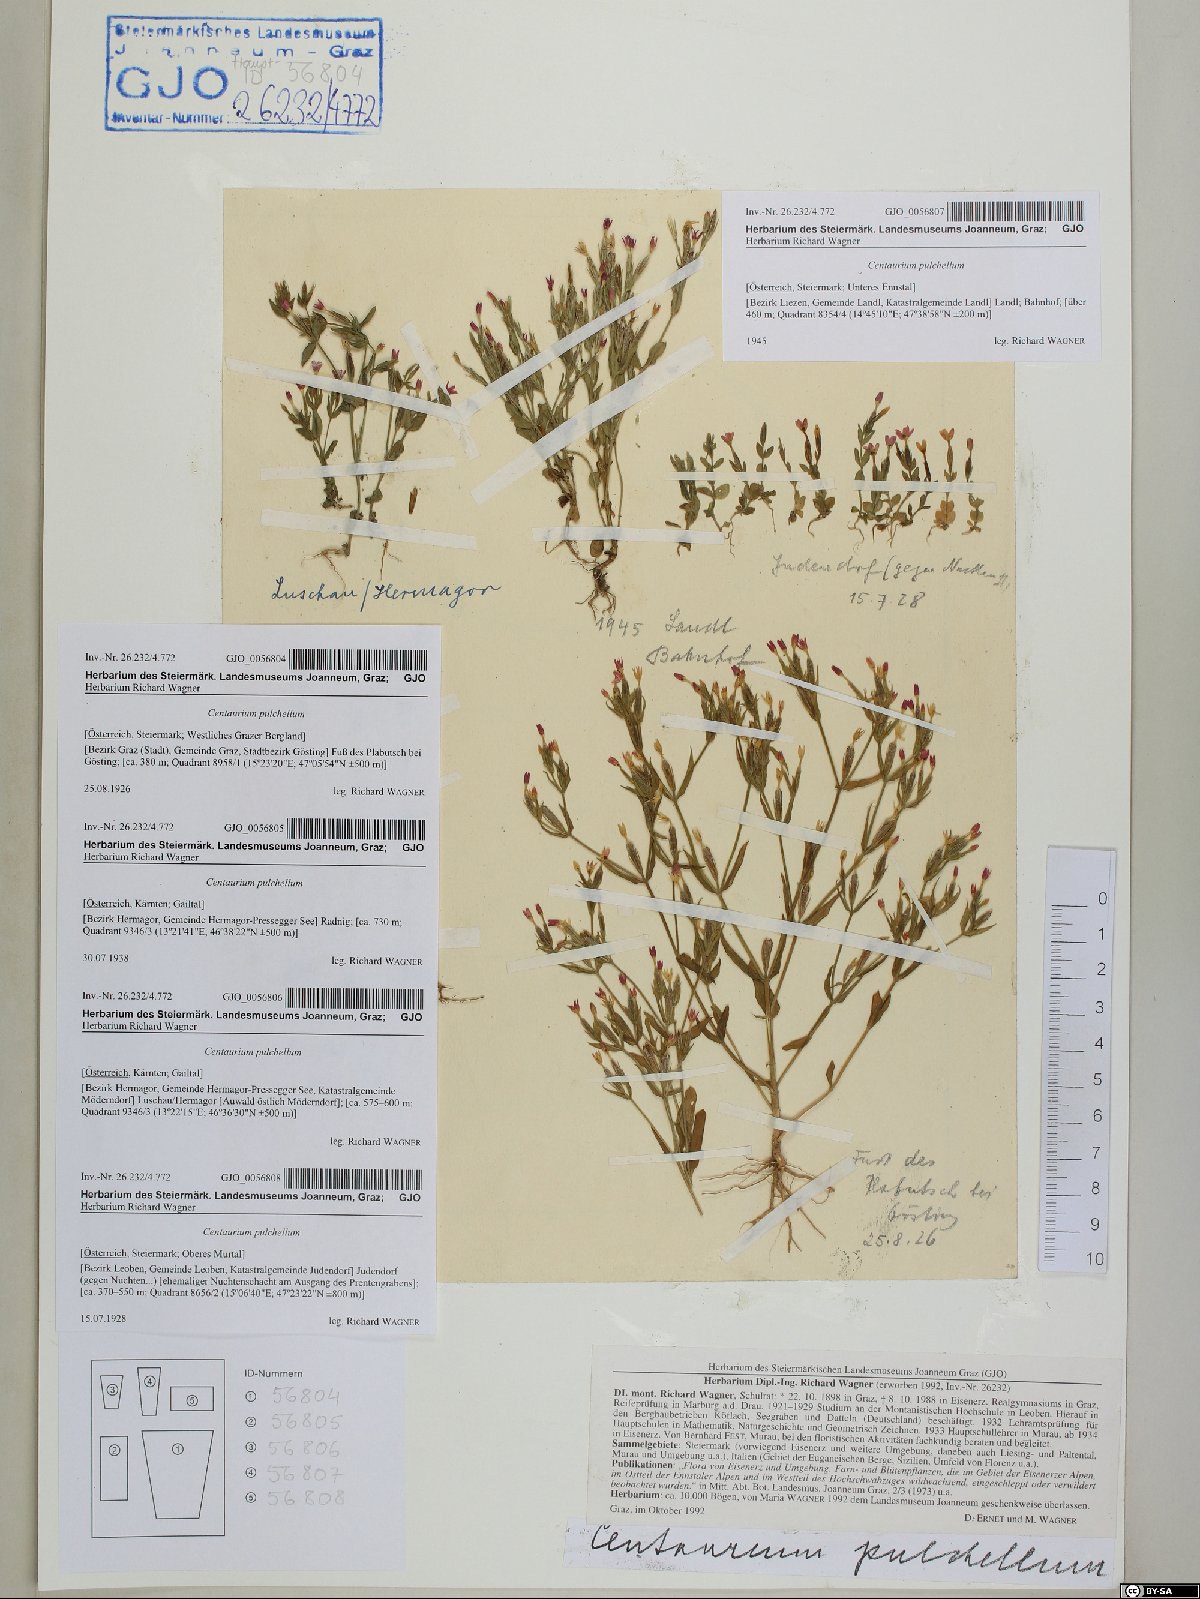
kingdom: Plantae
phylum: Tracheophyta
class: Magnoliopsida
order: Gentianales
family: Gentianaceae
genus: Centaurium
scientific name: Centaurium pulchellum
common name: Lesser centaury
